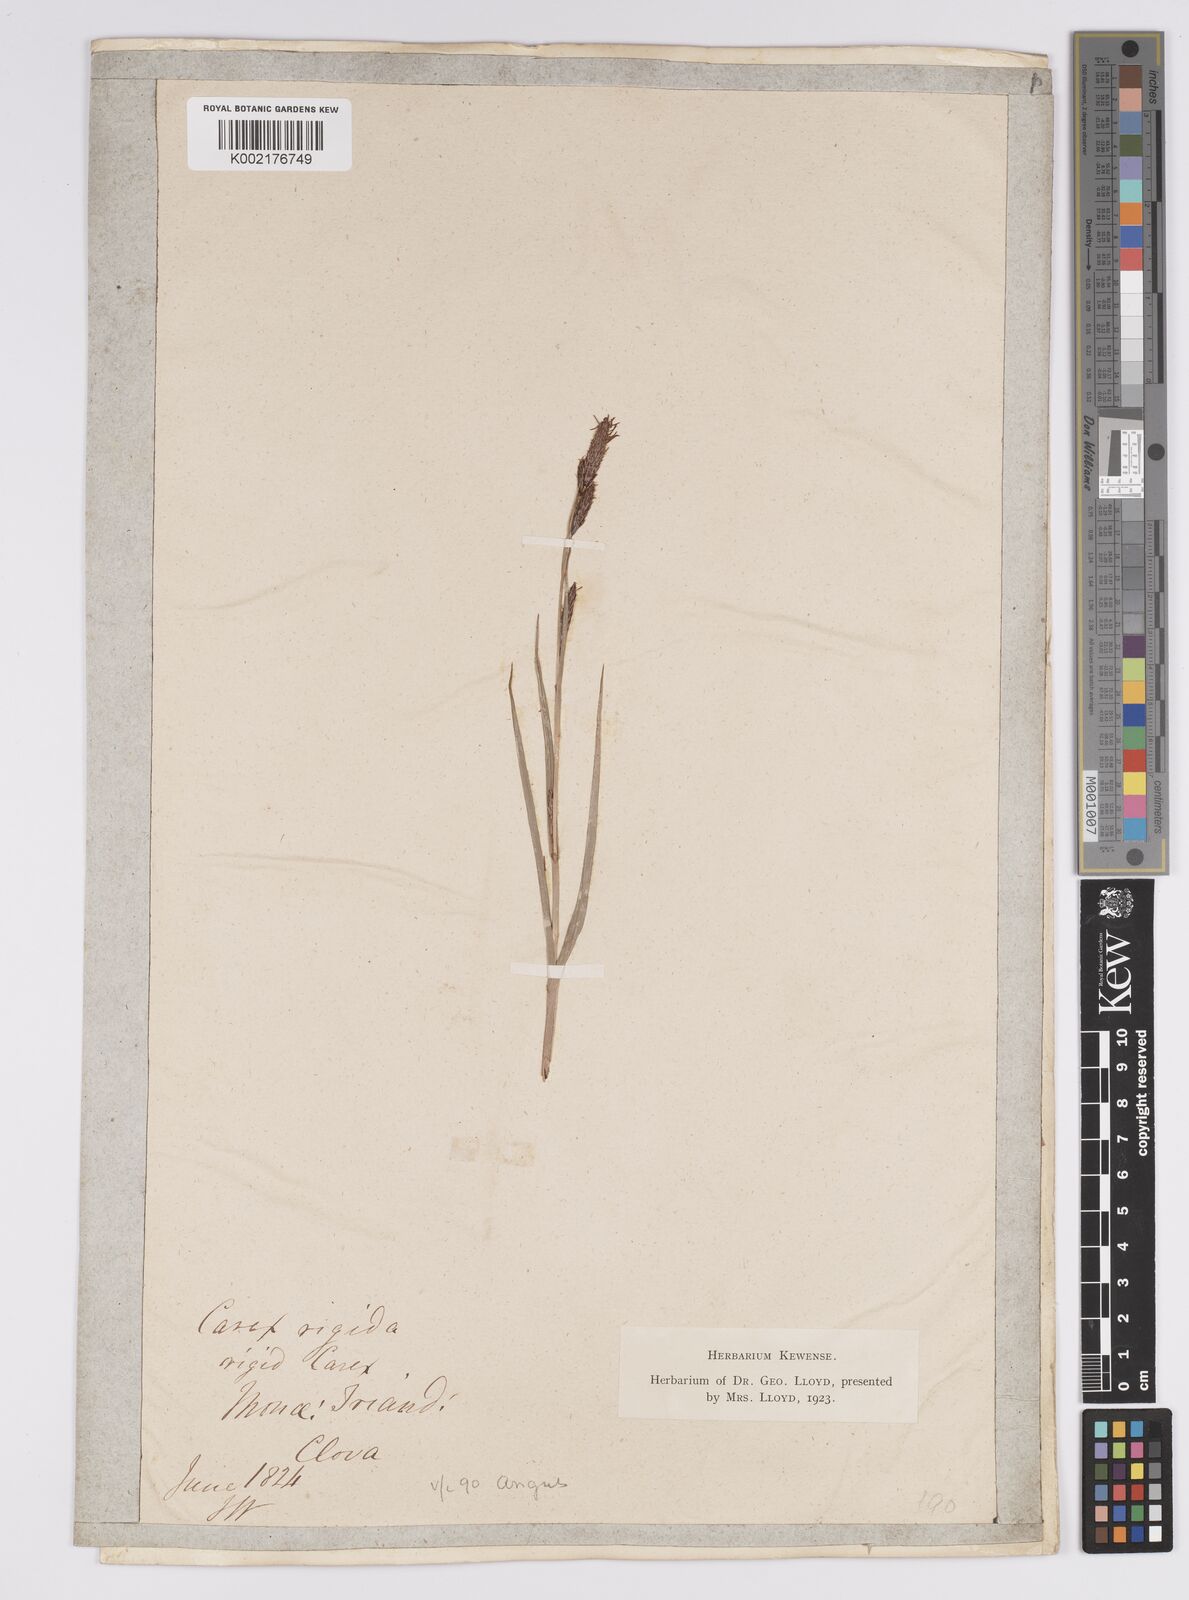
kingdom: Plantae
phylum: Tracheophyta
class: Liliopsida
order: Poales
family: Cyperaceae
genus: Carex
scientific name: Carex binervis
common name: Green-ribbed sedge
